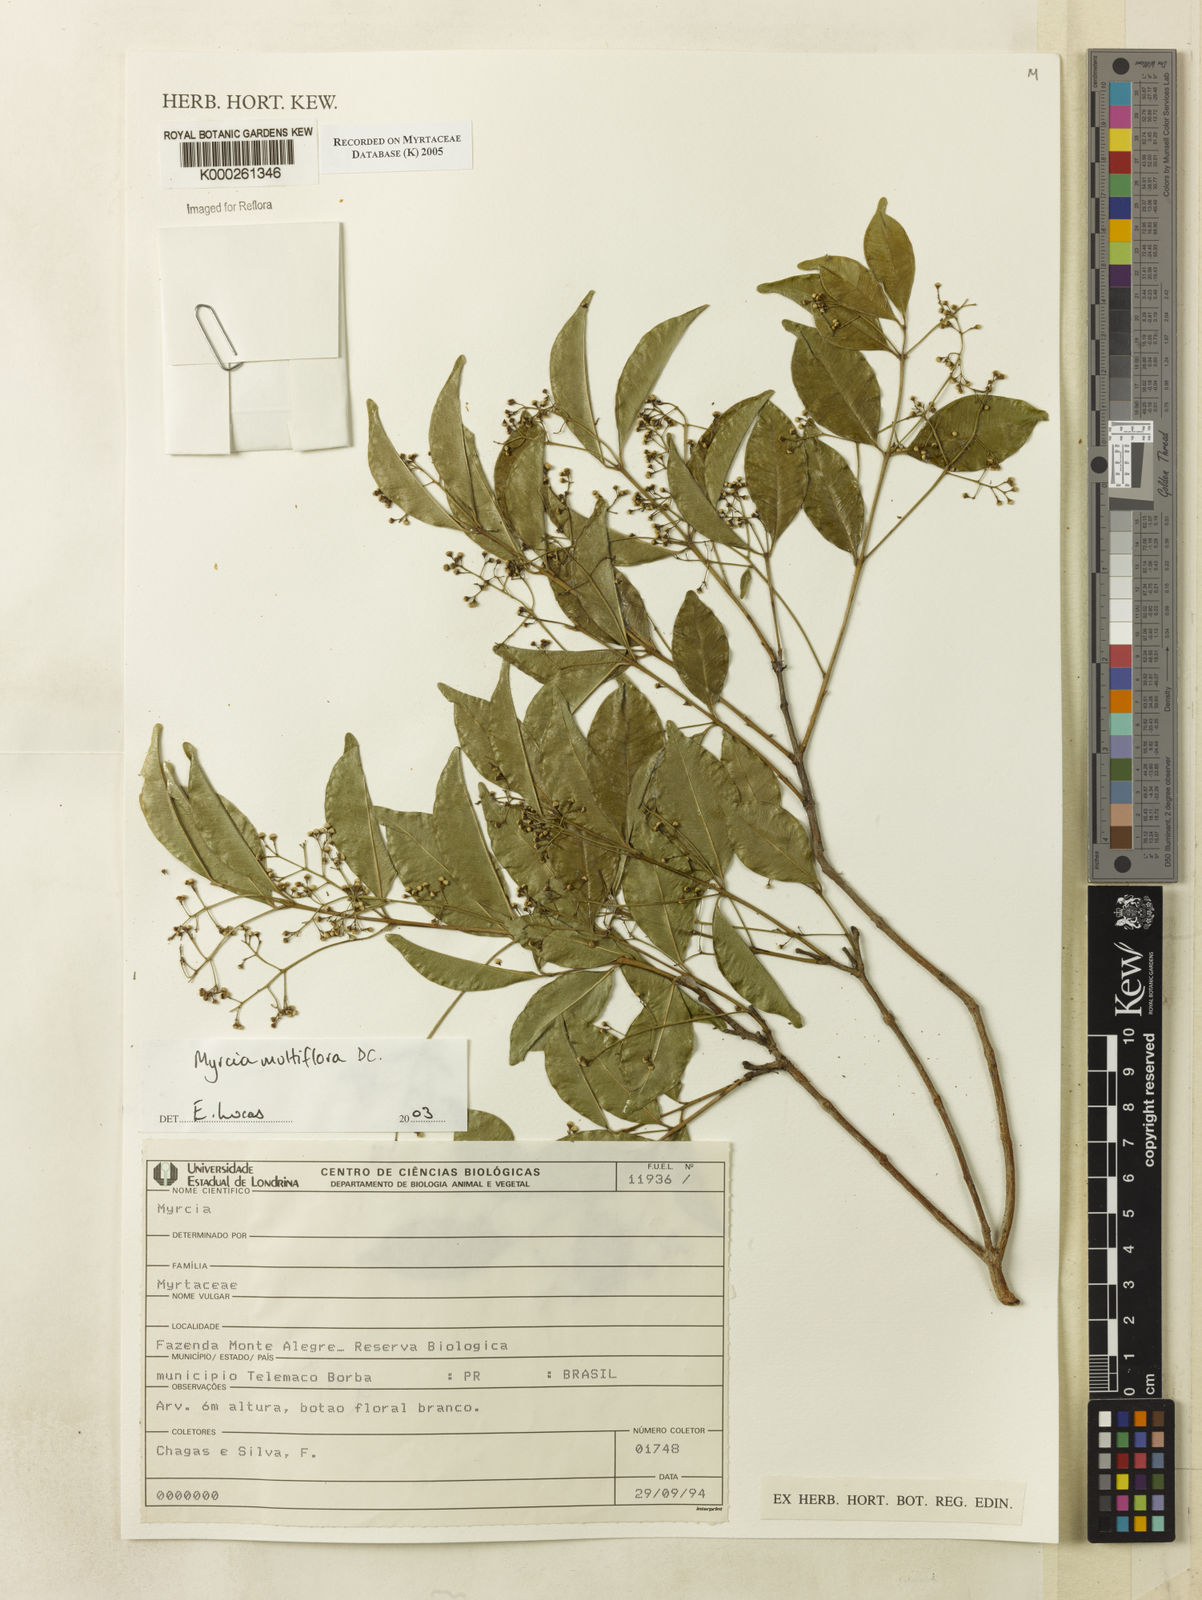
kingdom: Plantae
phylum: Tracheophyta
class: Magnoliopsida
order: Myrtales
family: Myrtaceae
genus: Myrcia
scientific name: Myrcia multiflora
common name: Pedra hume
